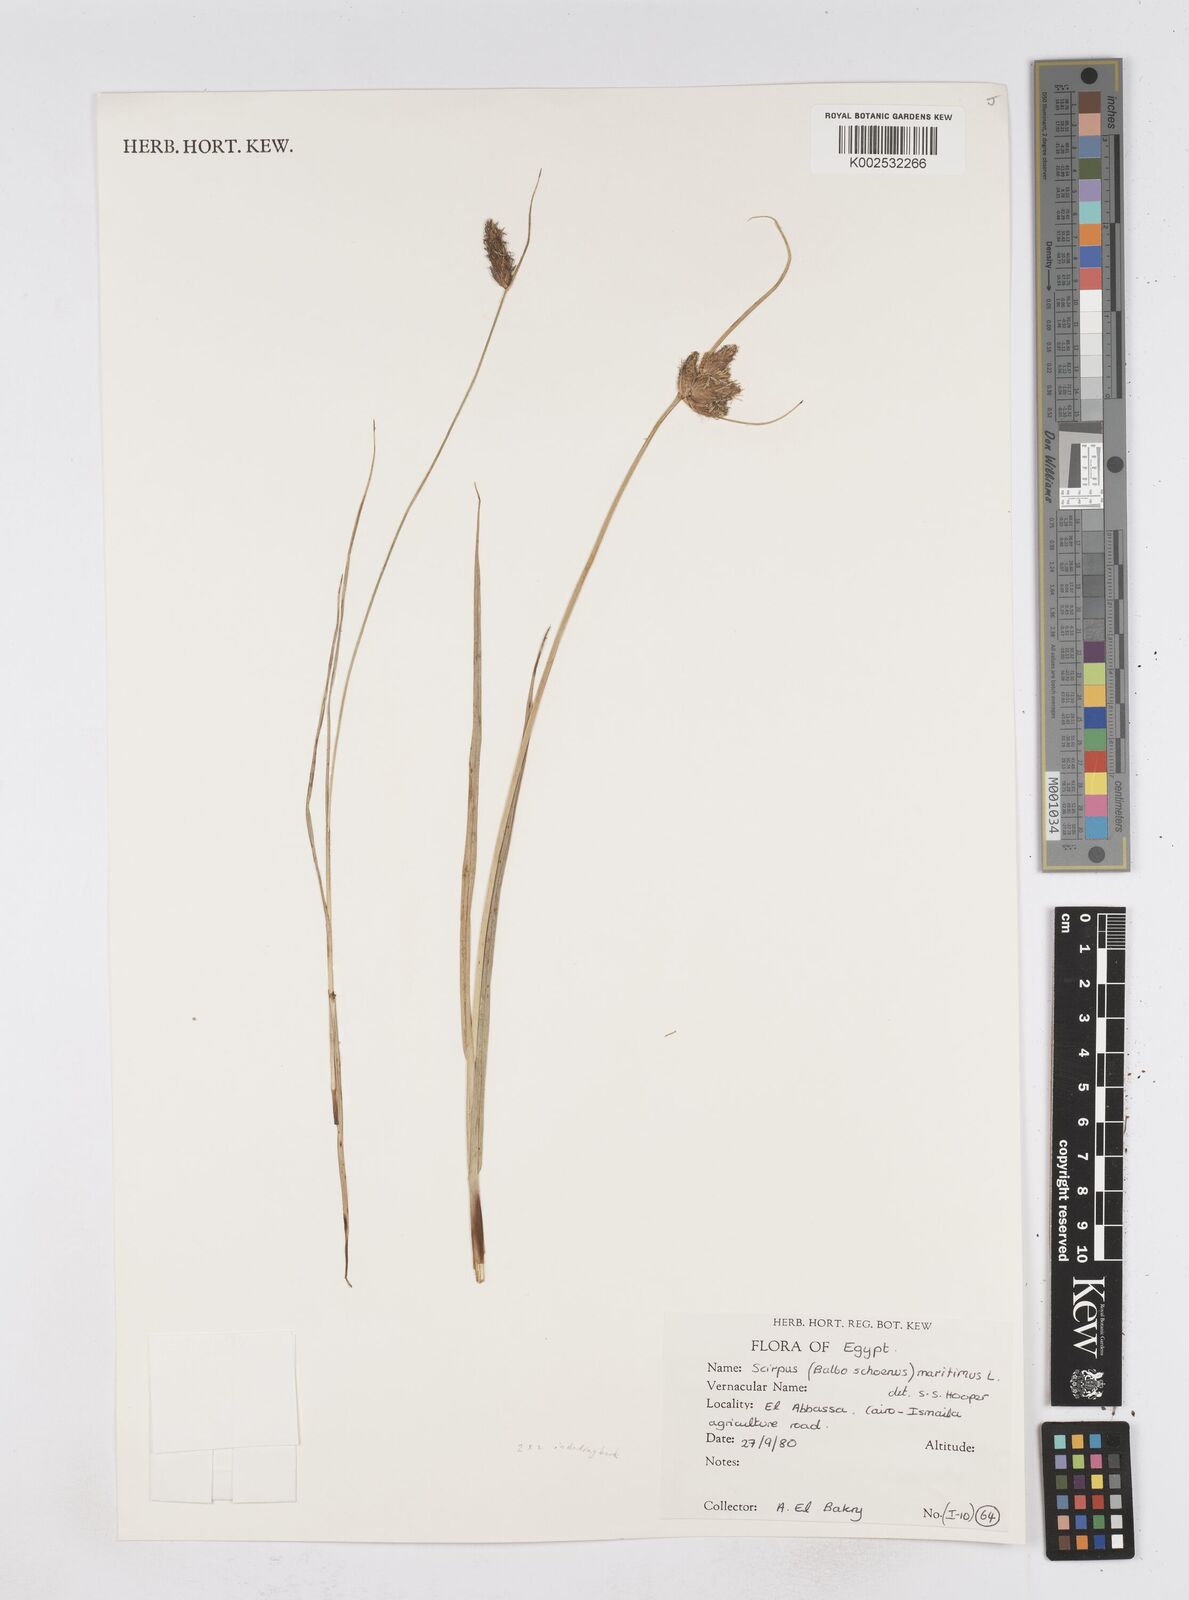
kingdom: Plantae
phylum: Tracheophyta
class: Liliopsida
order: Poales
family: Cyperaceae
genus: Bolboschoenus
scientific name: Bolboschoenus maritimus
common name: Sea club-rush
